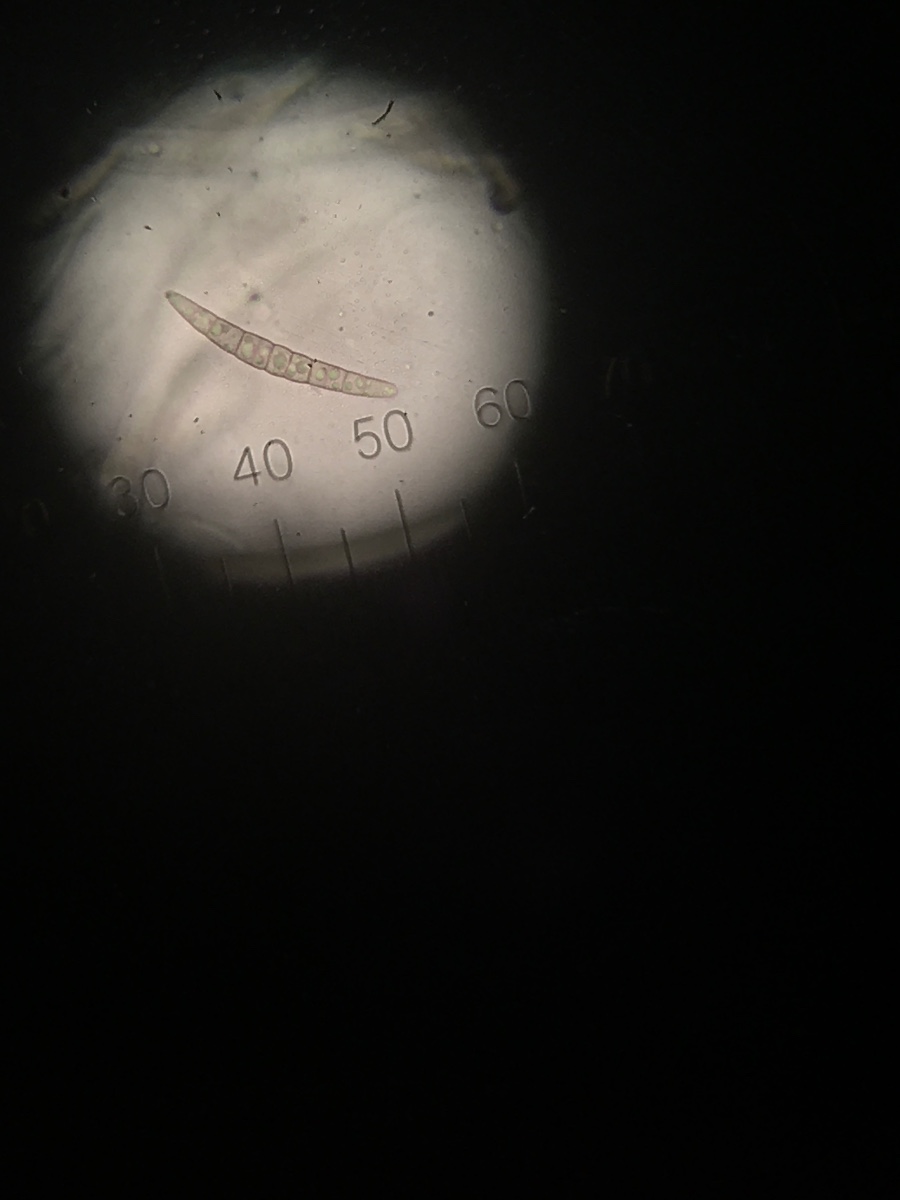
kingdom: Fungi
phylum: Ascomycota
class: Dothideomycetes
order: Pleosporales
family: Leptosphaeriaceae
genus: Leptosphaeria
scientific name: Leptosphaeria acuta
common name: spids kulkegle
